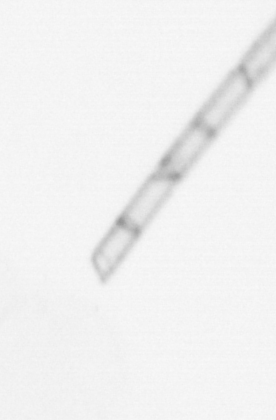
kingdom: Chromista
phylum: Ochrophyta
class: Bacillariophyceae
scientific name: Bacillariophyceae
